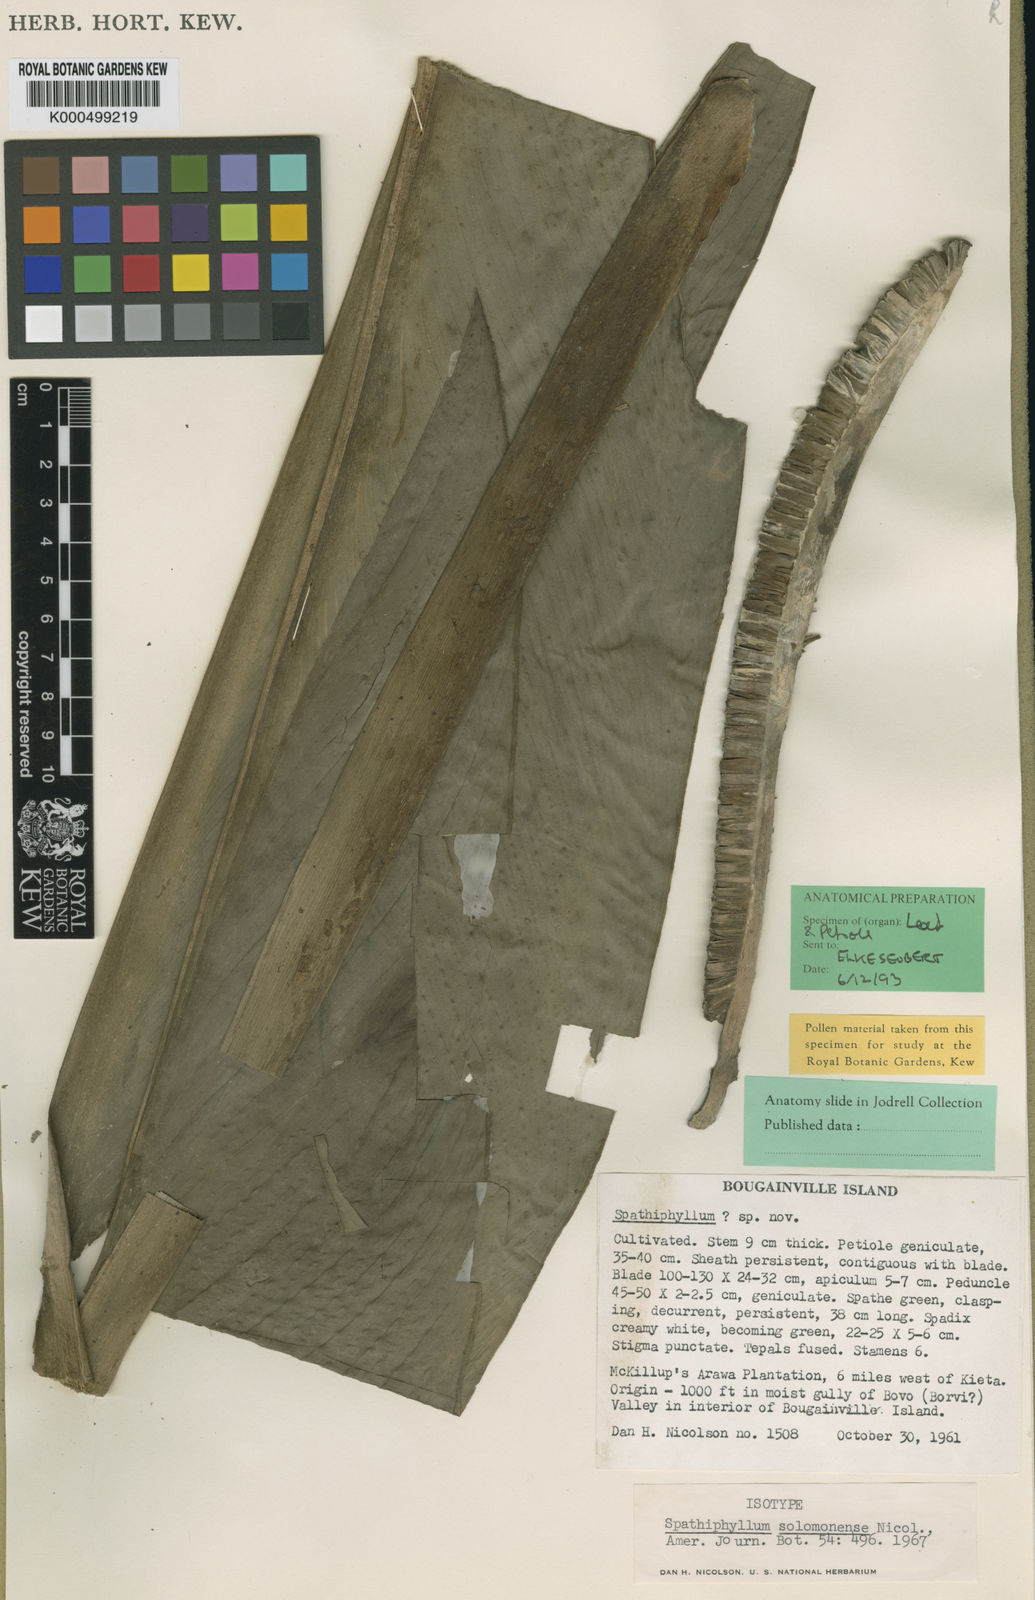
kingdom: Plantae
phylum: Tracheophyta
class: Liliopsida
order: Alismatales
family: Araceae
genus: Spathiphyllum
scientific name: Spathiphyllum solomonense
